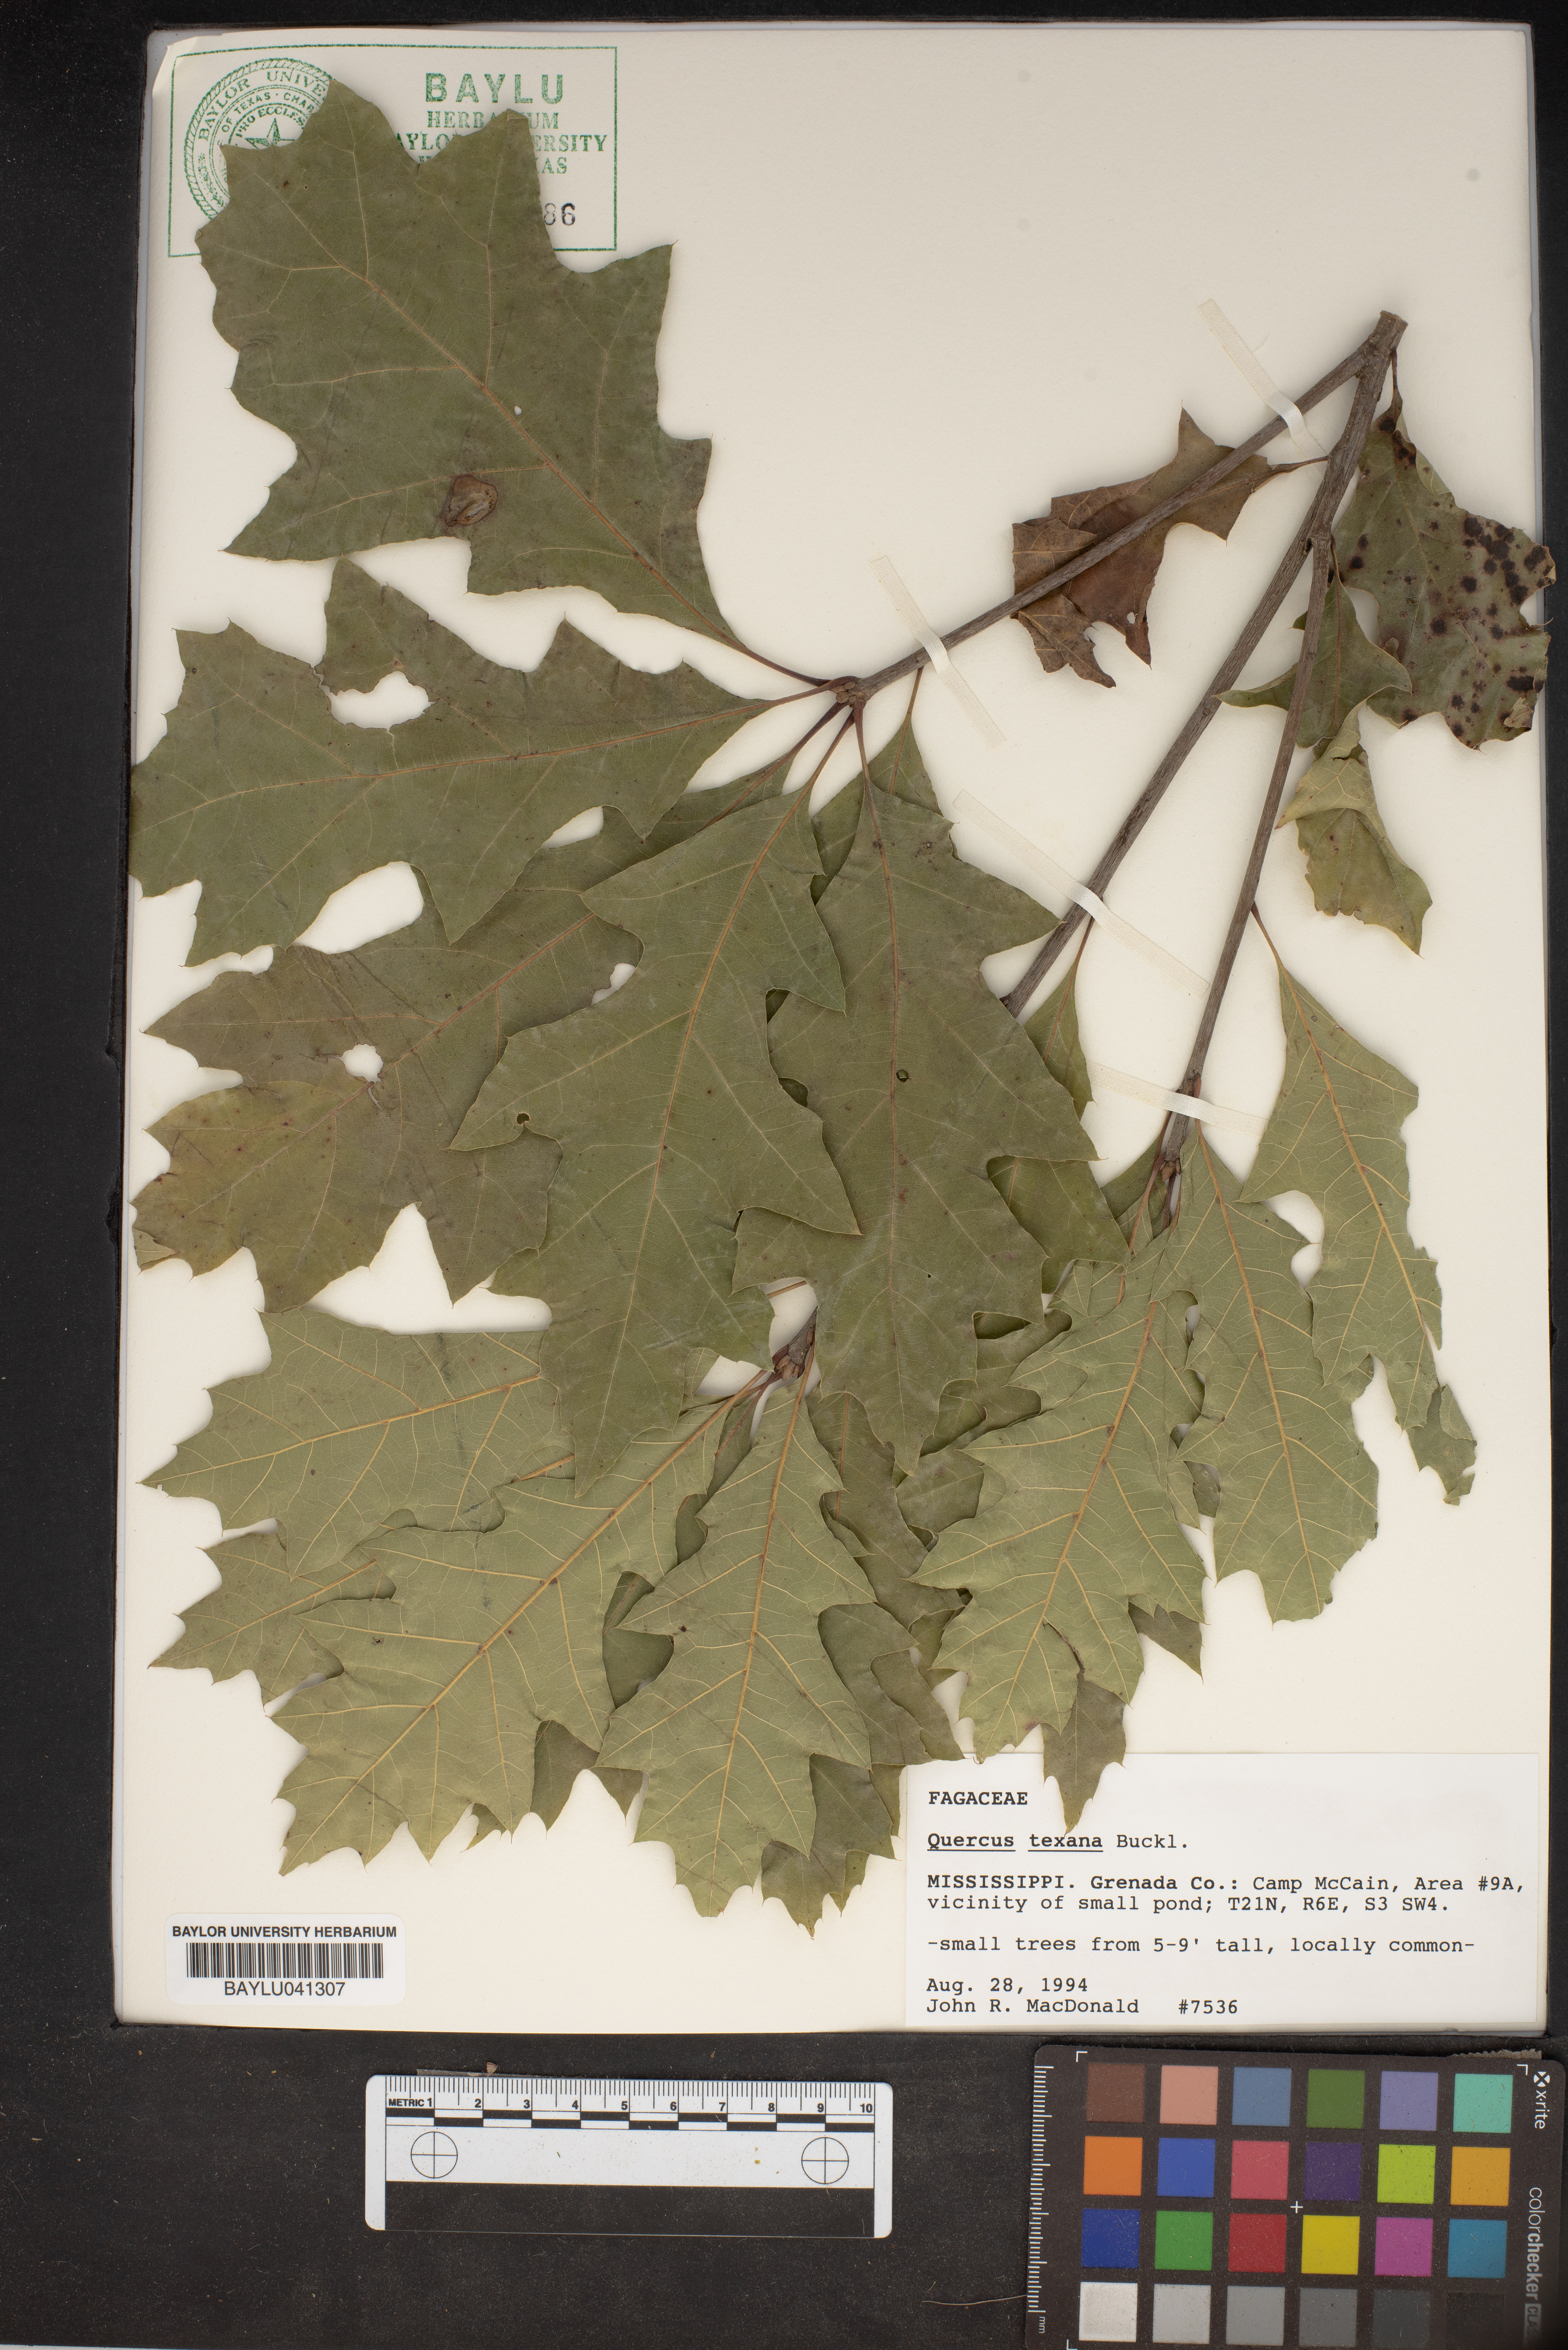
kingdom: Plantae
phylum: Tracheophyta
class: Magnoliopsida
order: Fagales
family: Fagaceae
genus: Quercus
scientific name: Quercus texana
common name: Nuttall oak
